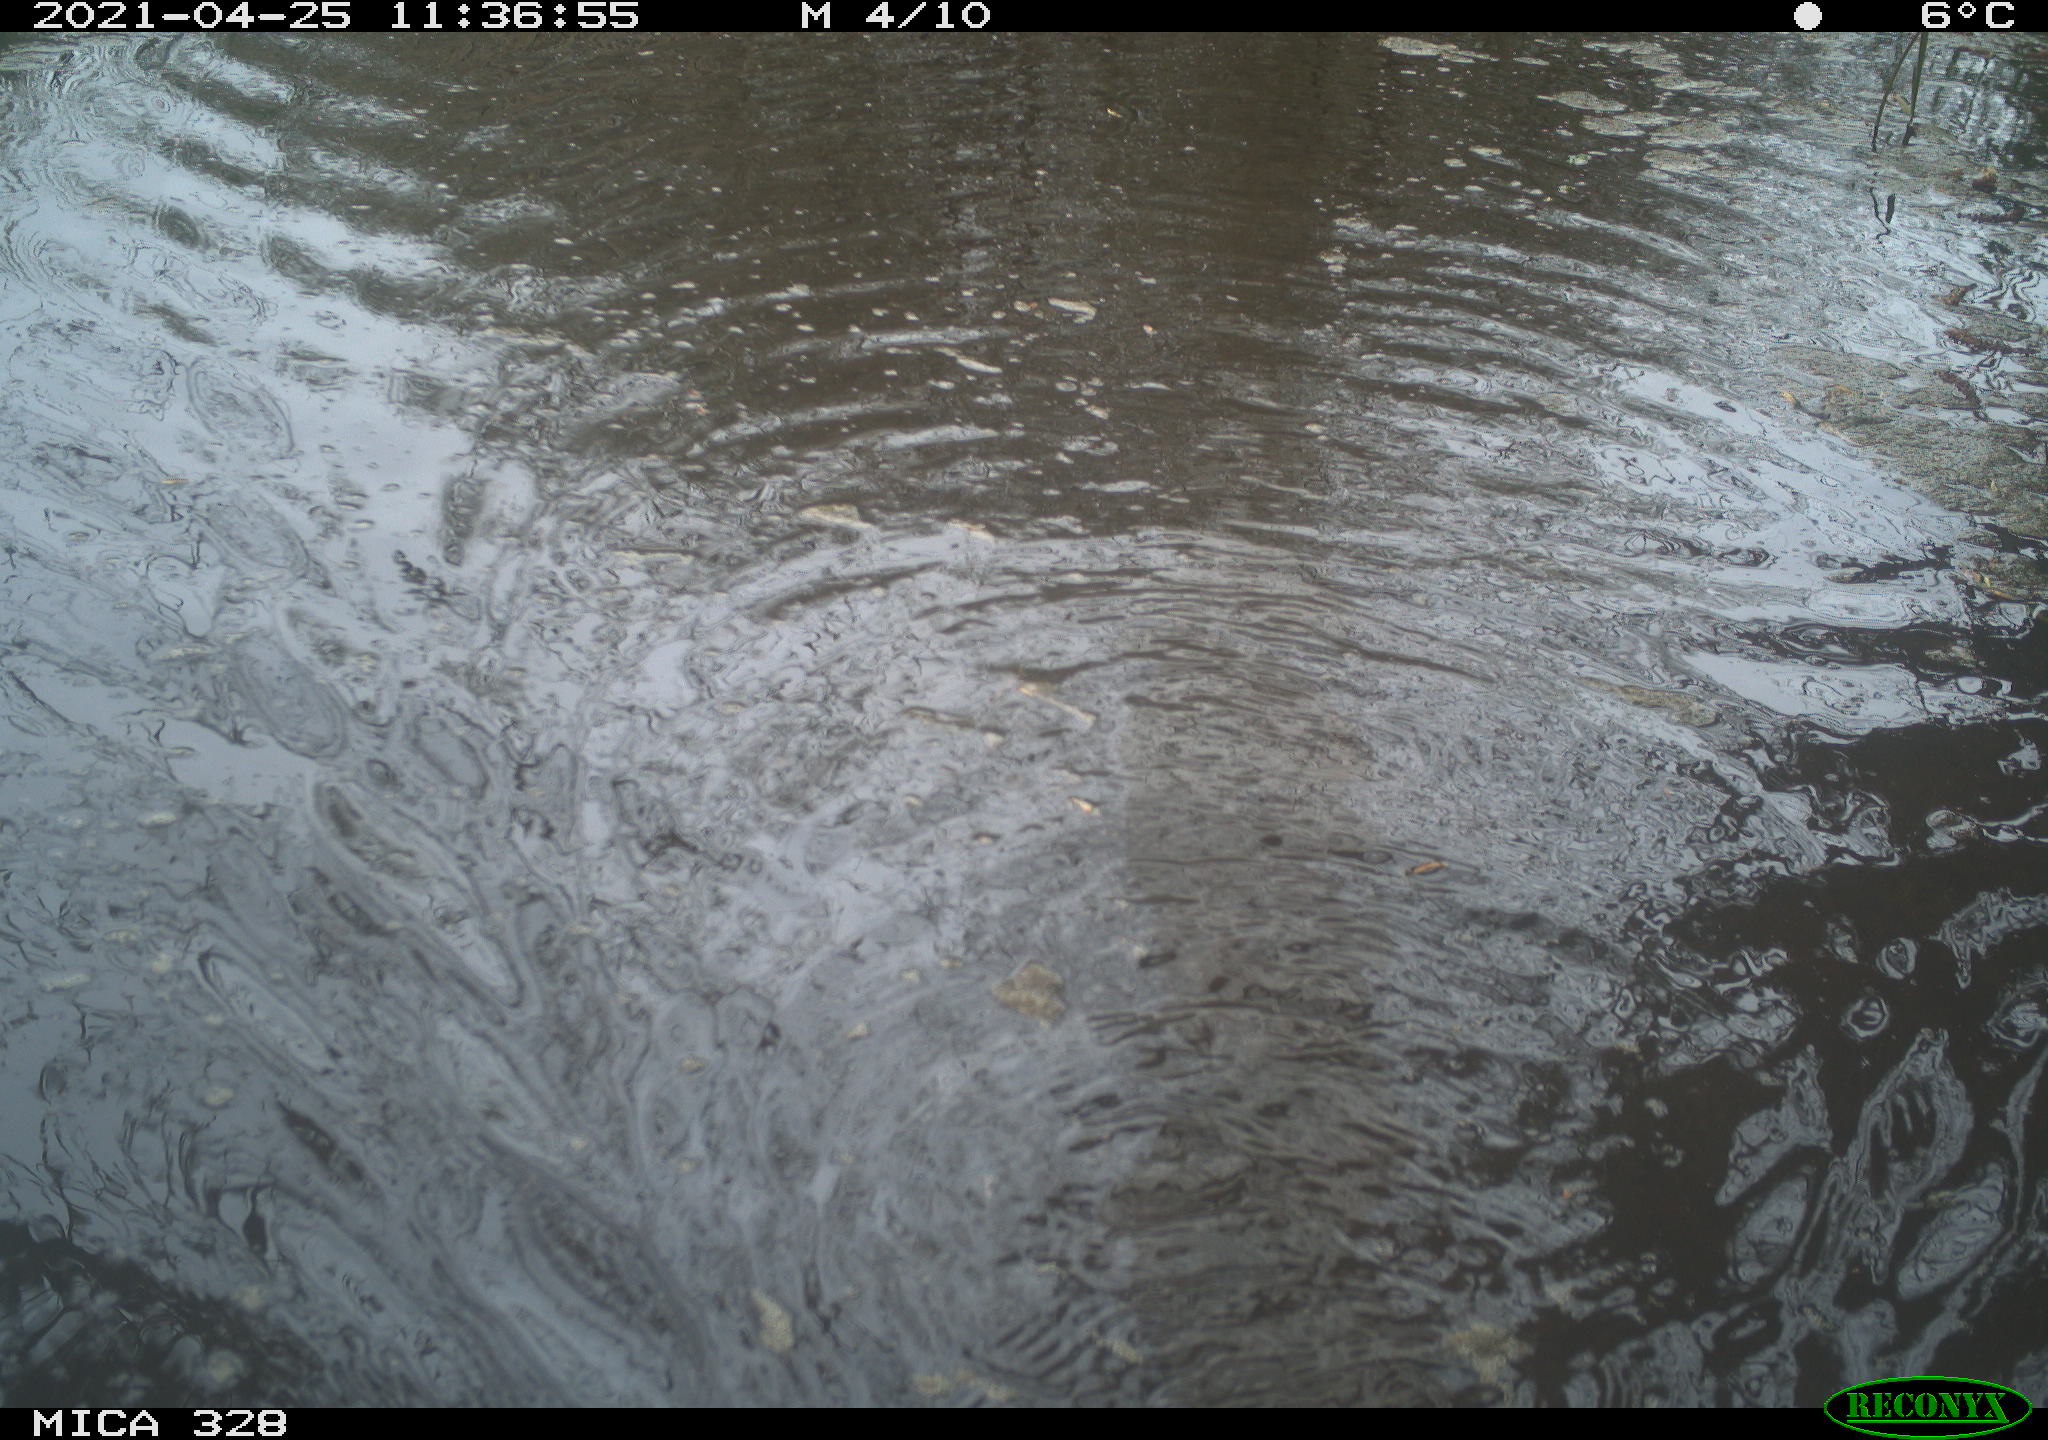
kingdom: Animalia
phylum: Chordata
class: Mammalia
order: Rodentia
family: Cricetidae
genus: Ondatra
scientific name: Ondatra zibethicus
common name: Muskrat
